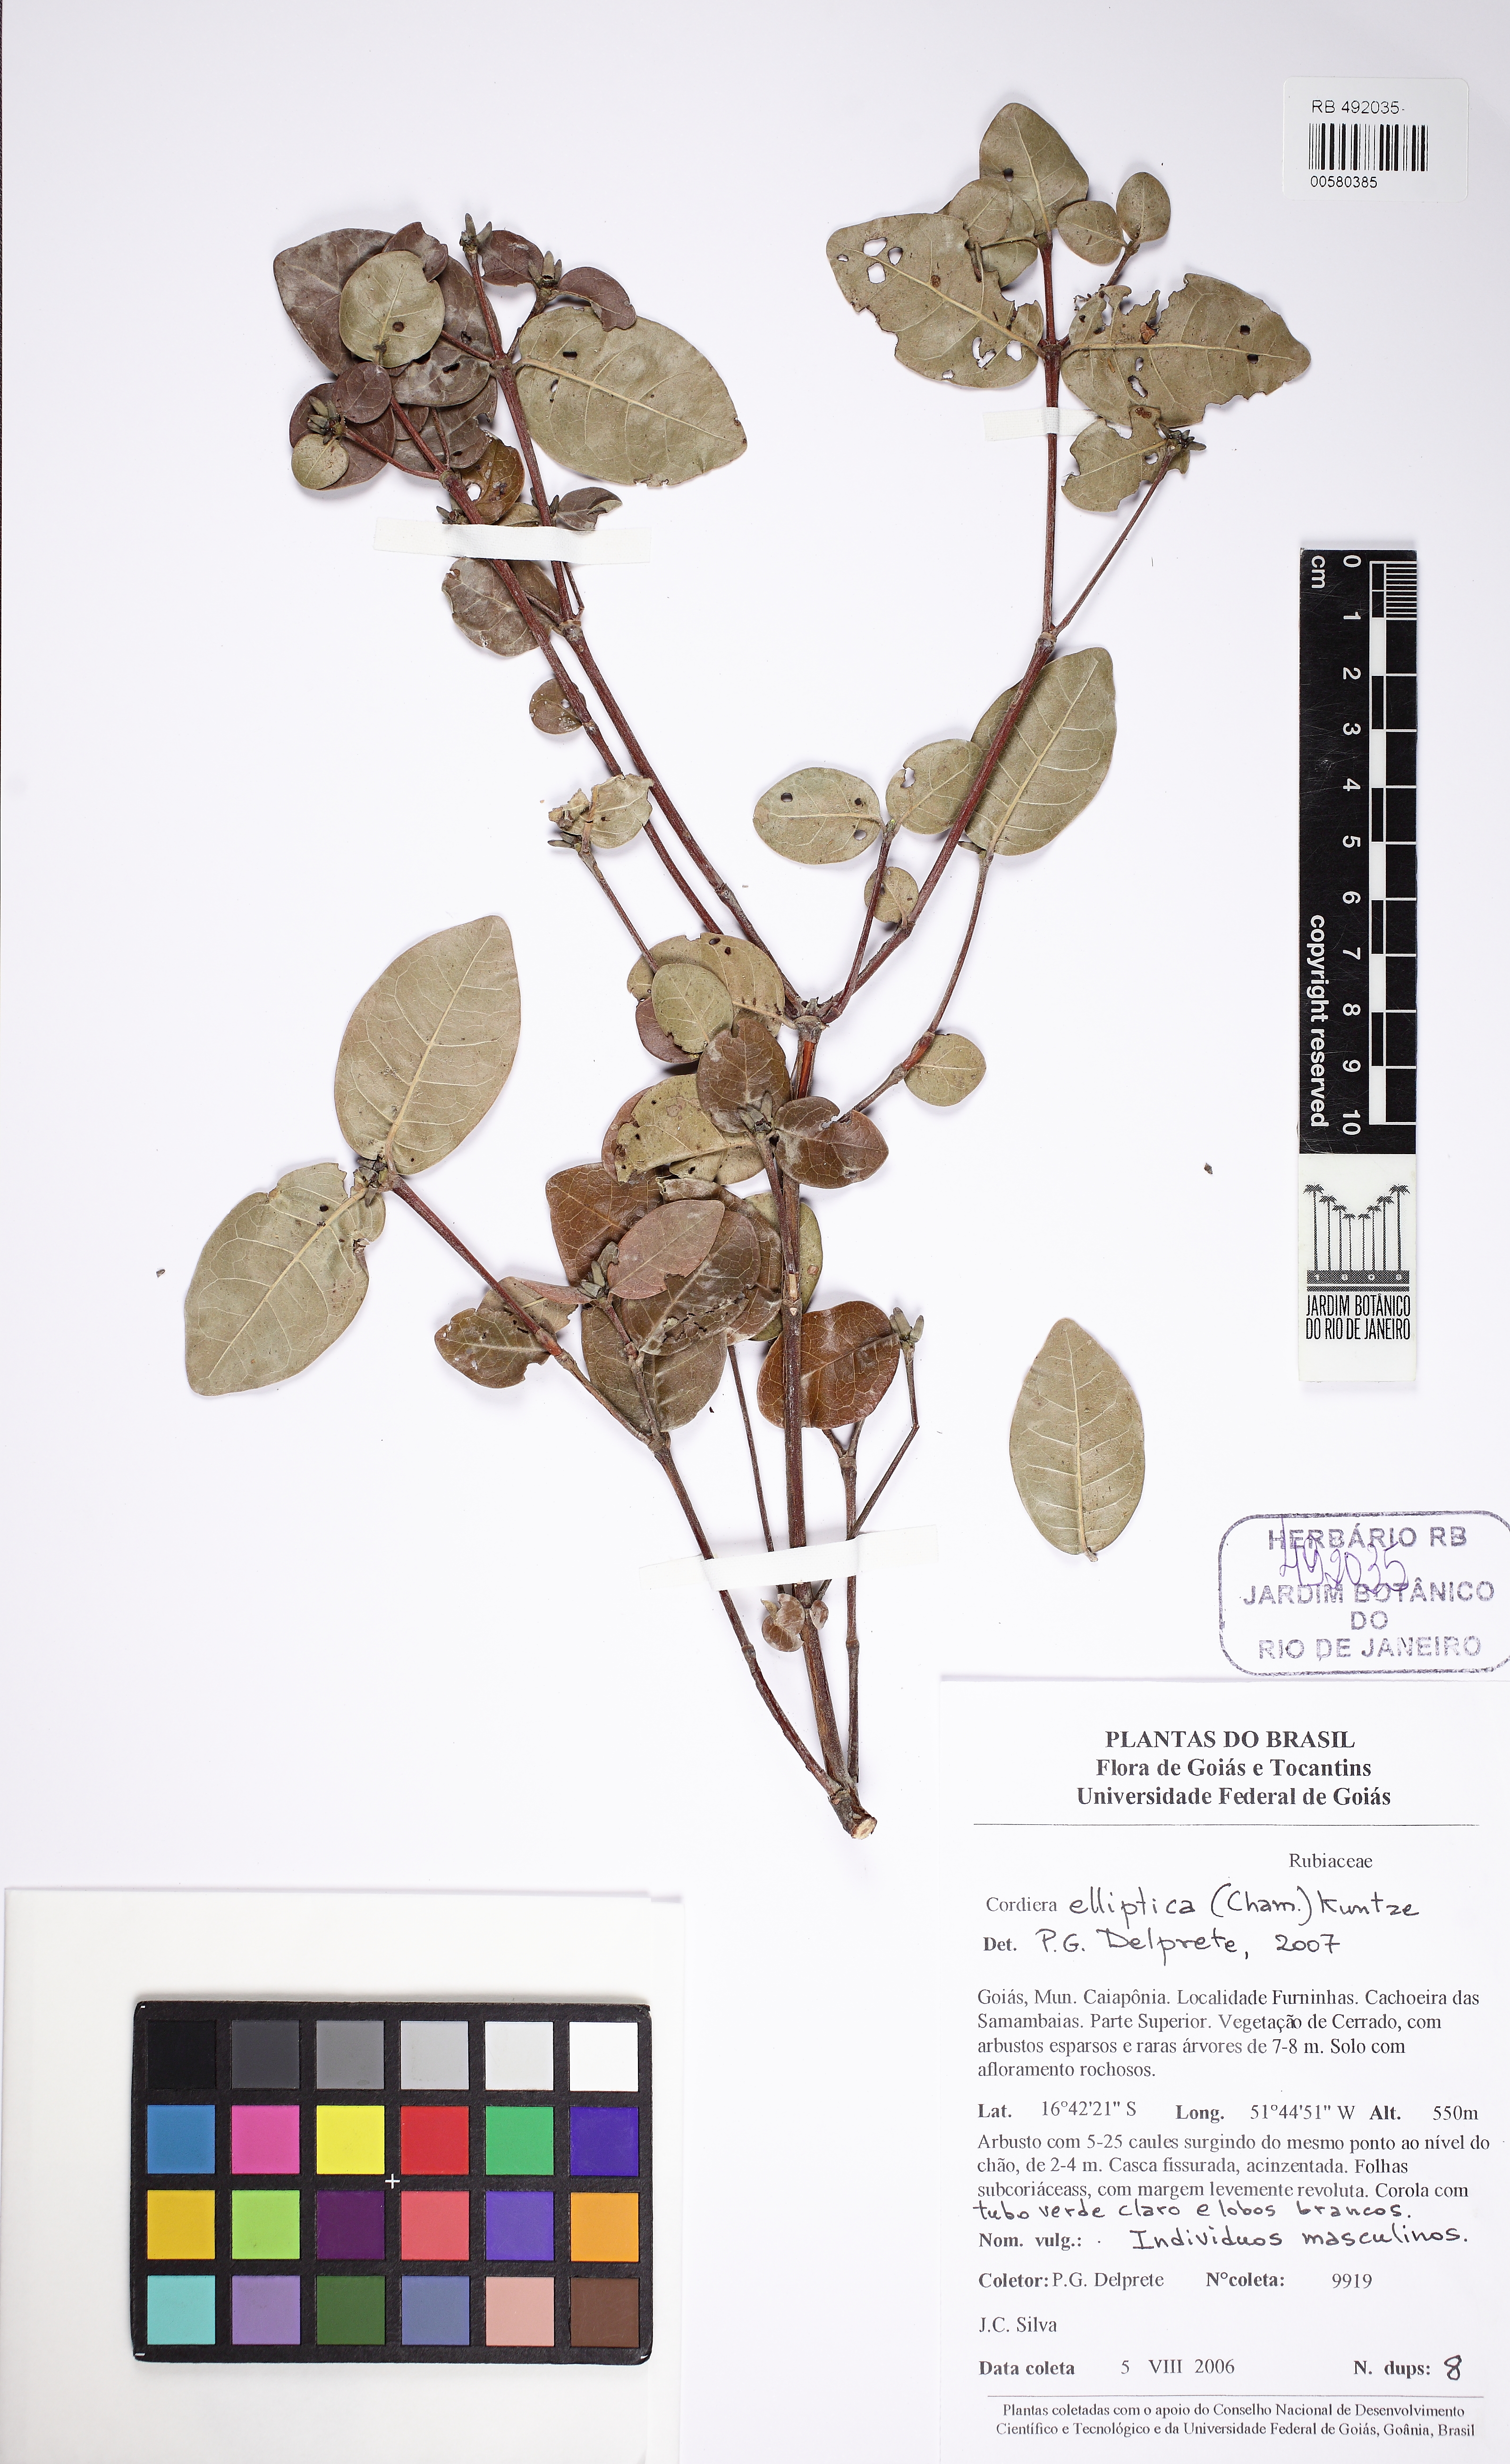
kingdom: Plantae
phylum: Tracheophyta
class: Magnoliopsida
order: Gentianales
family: Rubiaceae
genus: Cordiera
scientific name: Cordiera elliptica
